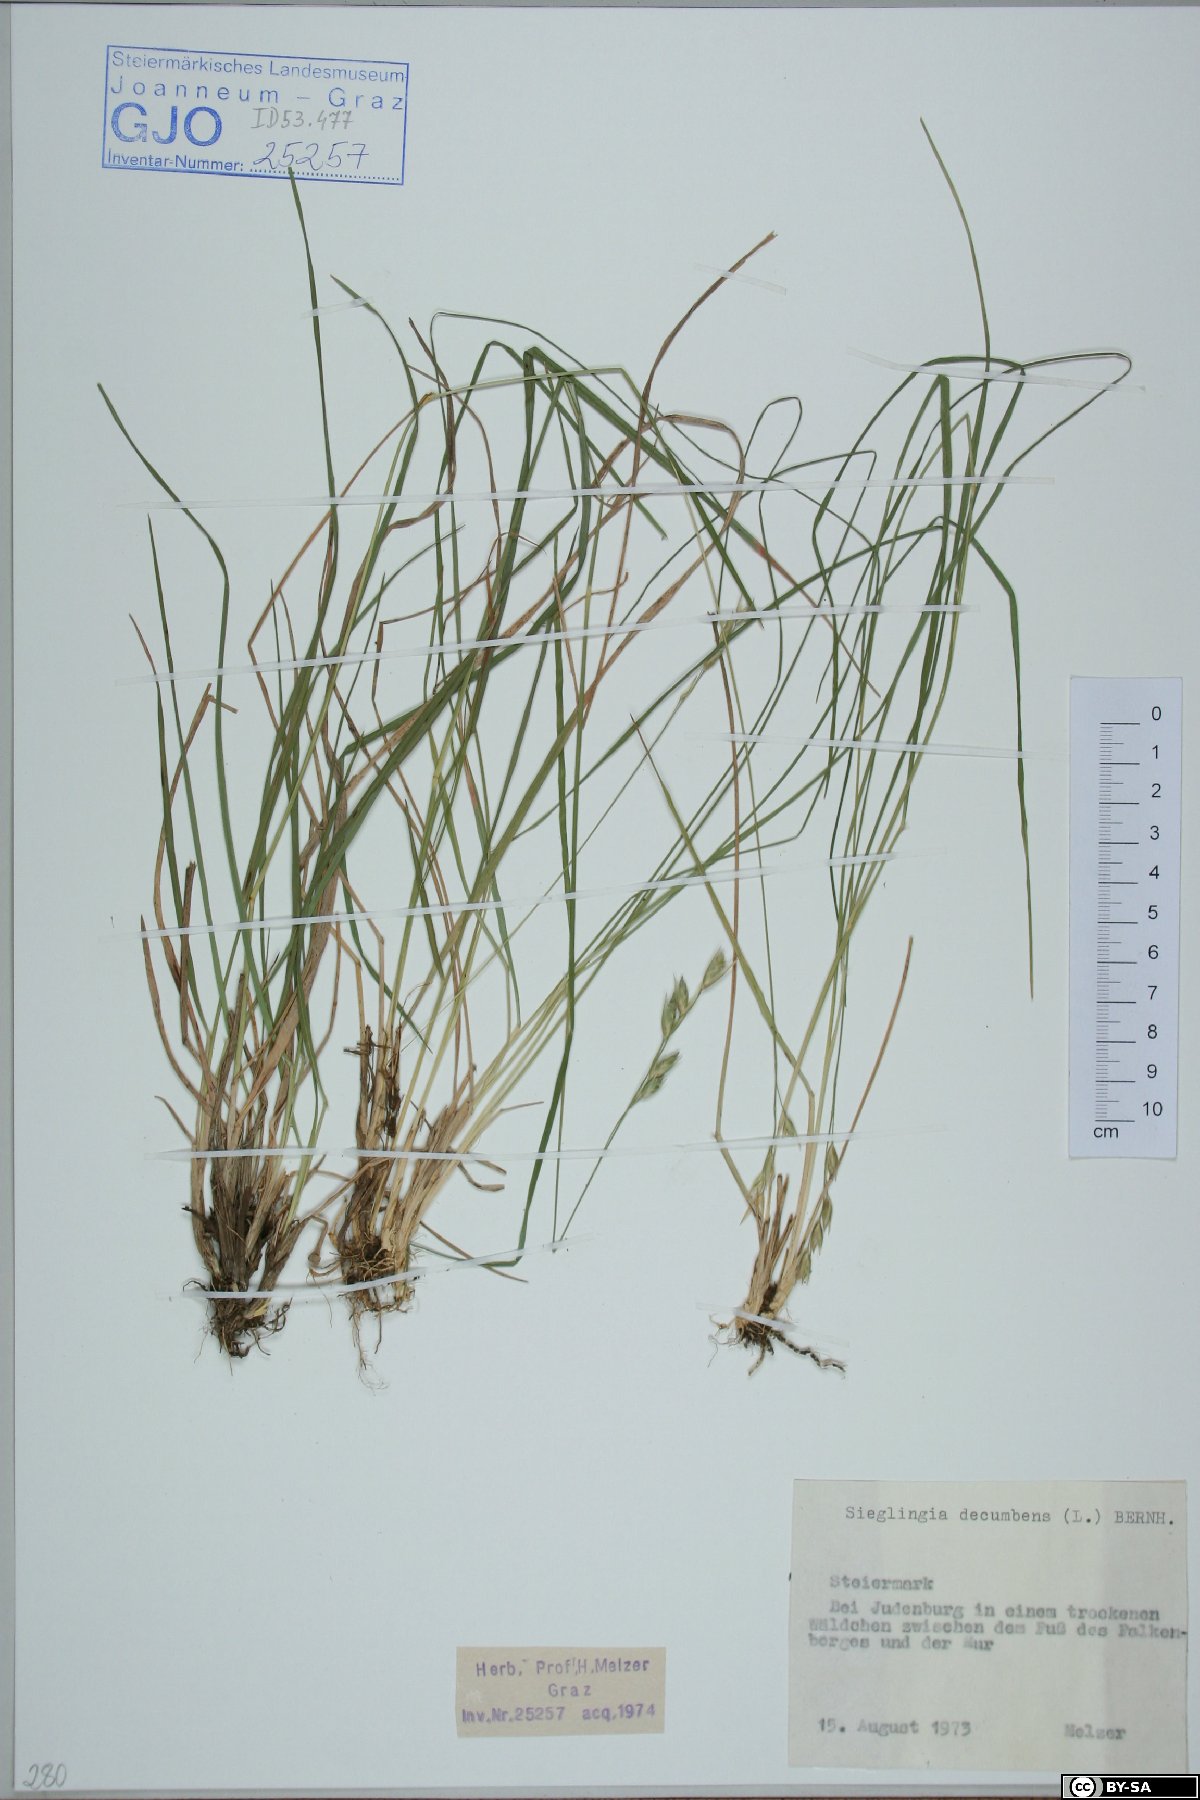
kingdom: Plantae
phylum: Tracheophyta
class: Liliopsida
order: Poales
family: Poaceae
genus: Danthonia
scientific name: Danthonia decumbens
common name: Common heathgrass
